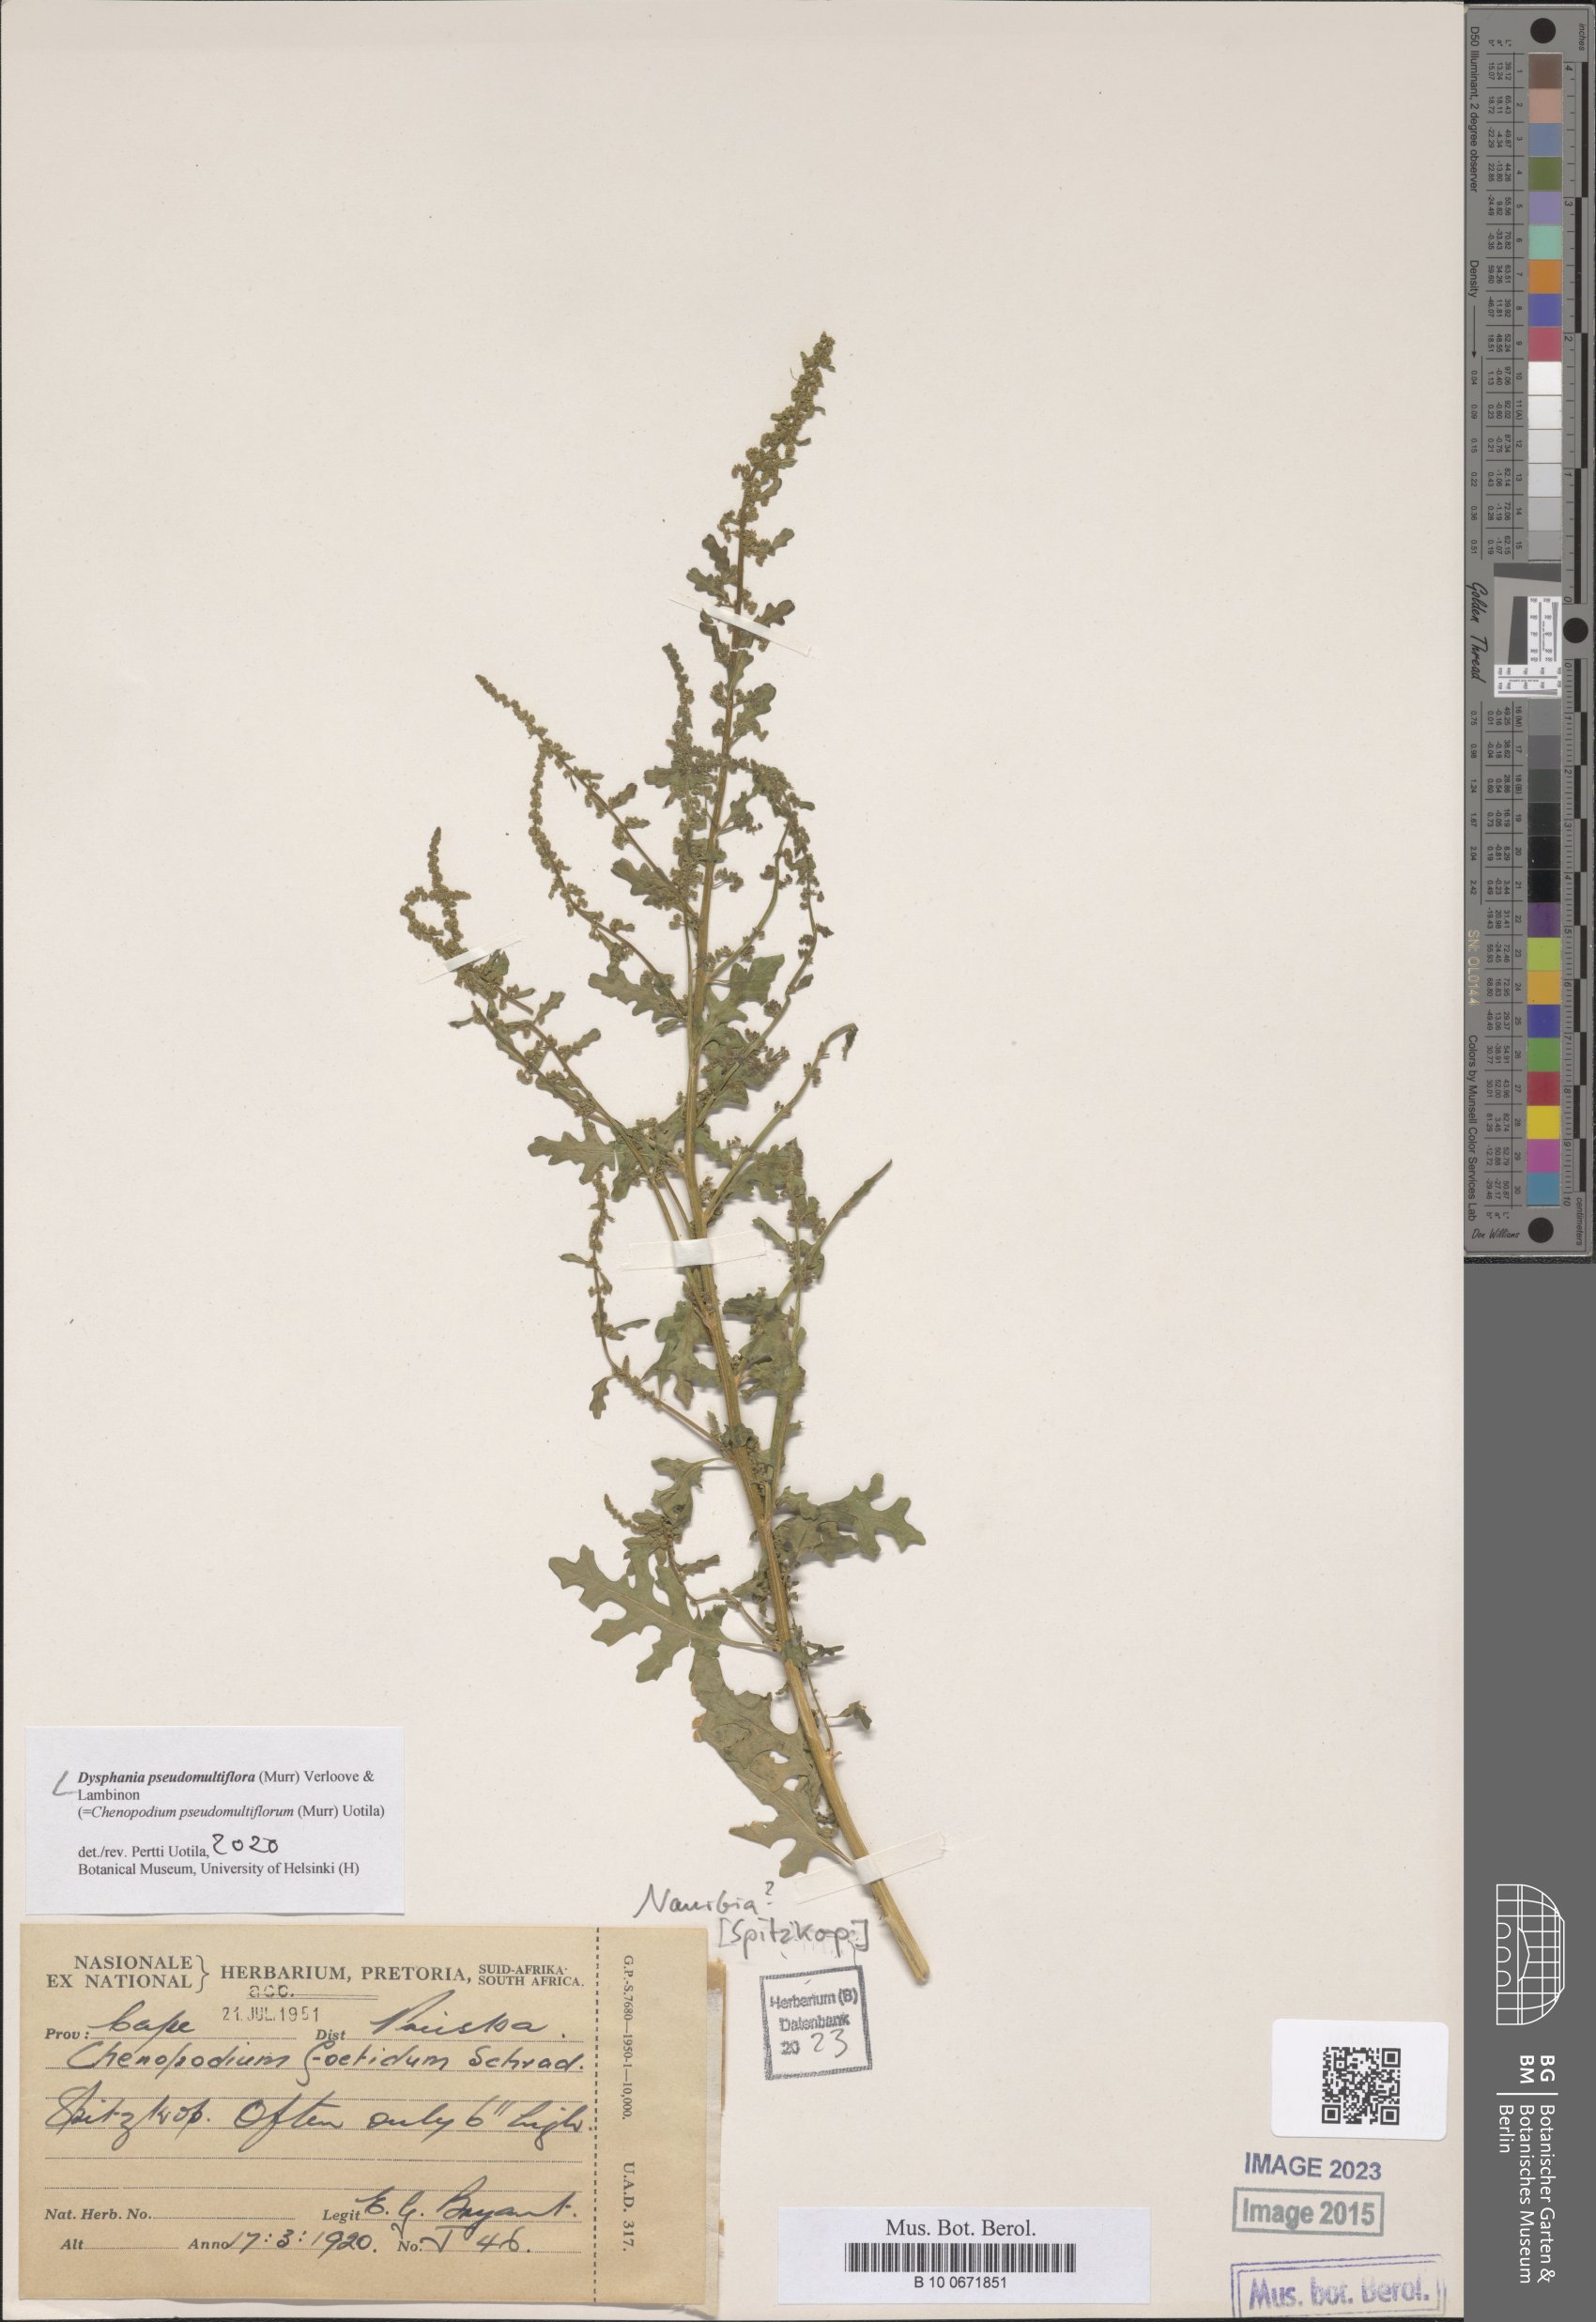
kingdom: Plantae
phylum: Tracheophyta
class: Magnoliopsida
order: Caryophyllales
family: Amaranthaceae
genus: Dysphania
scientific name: Dysphania pseudomultiflora
